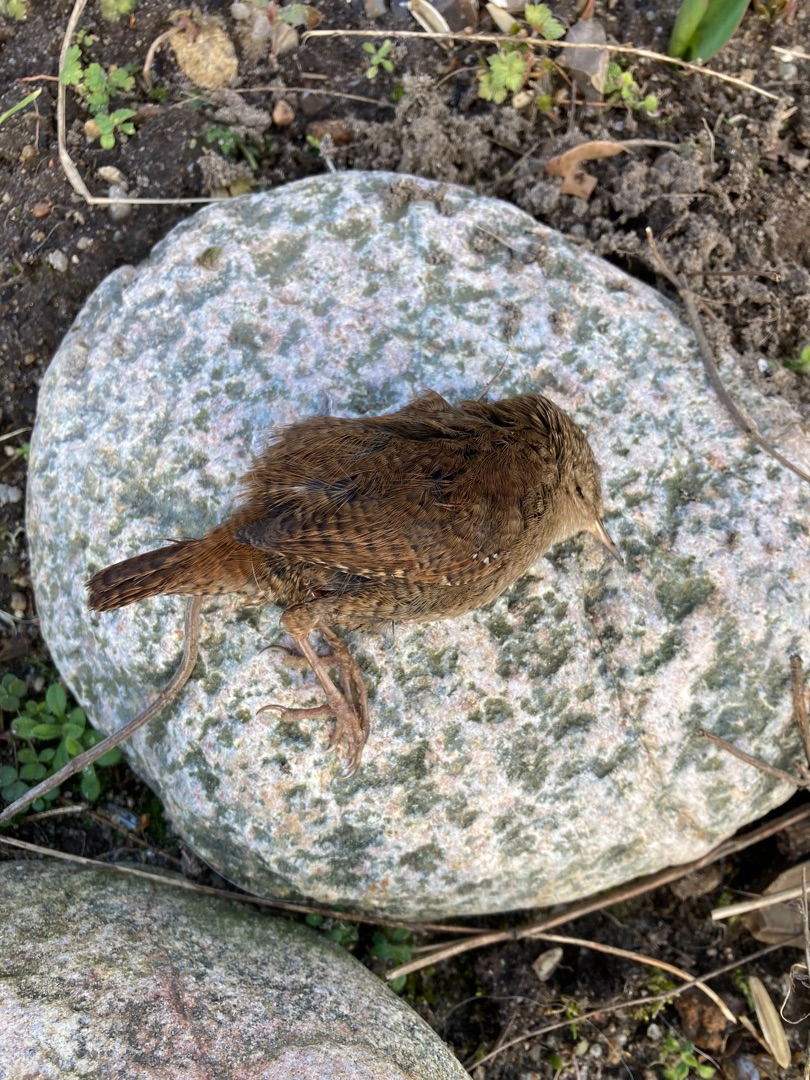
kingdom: Animalia
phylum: Chordata
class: Aves
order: Passeriformes
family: Troglodytidae
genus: Troglodytes
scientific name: Troglodytes troglodytes
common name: Gærdesmutte
